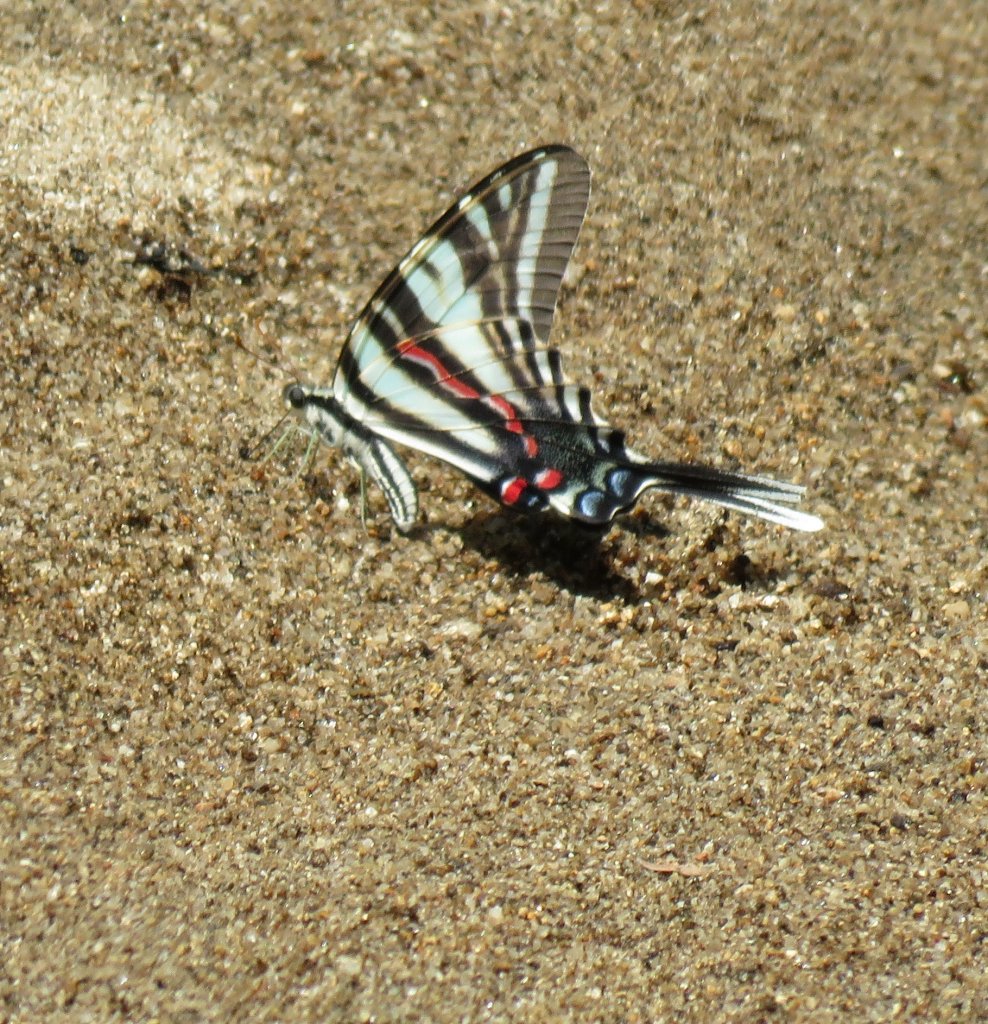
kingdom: Animalia
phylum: Arthropoda
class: Insecta
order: Lepidoptera
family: Papilionidae
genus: Protographium
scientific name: Protographium marcellus
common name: Zebra Swallowtail
